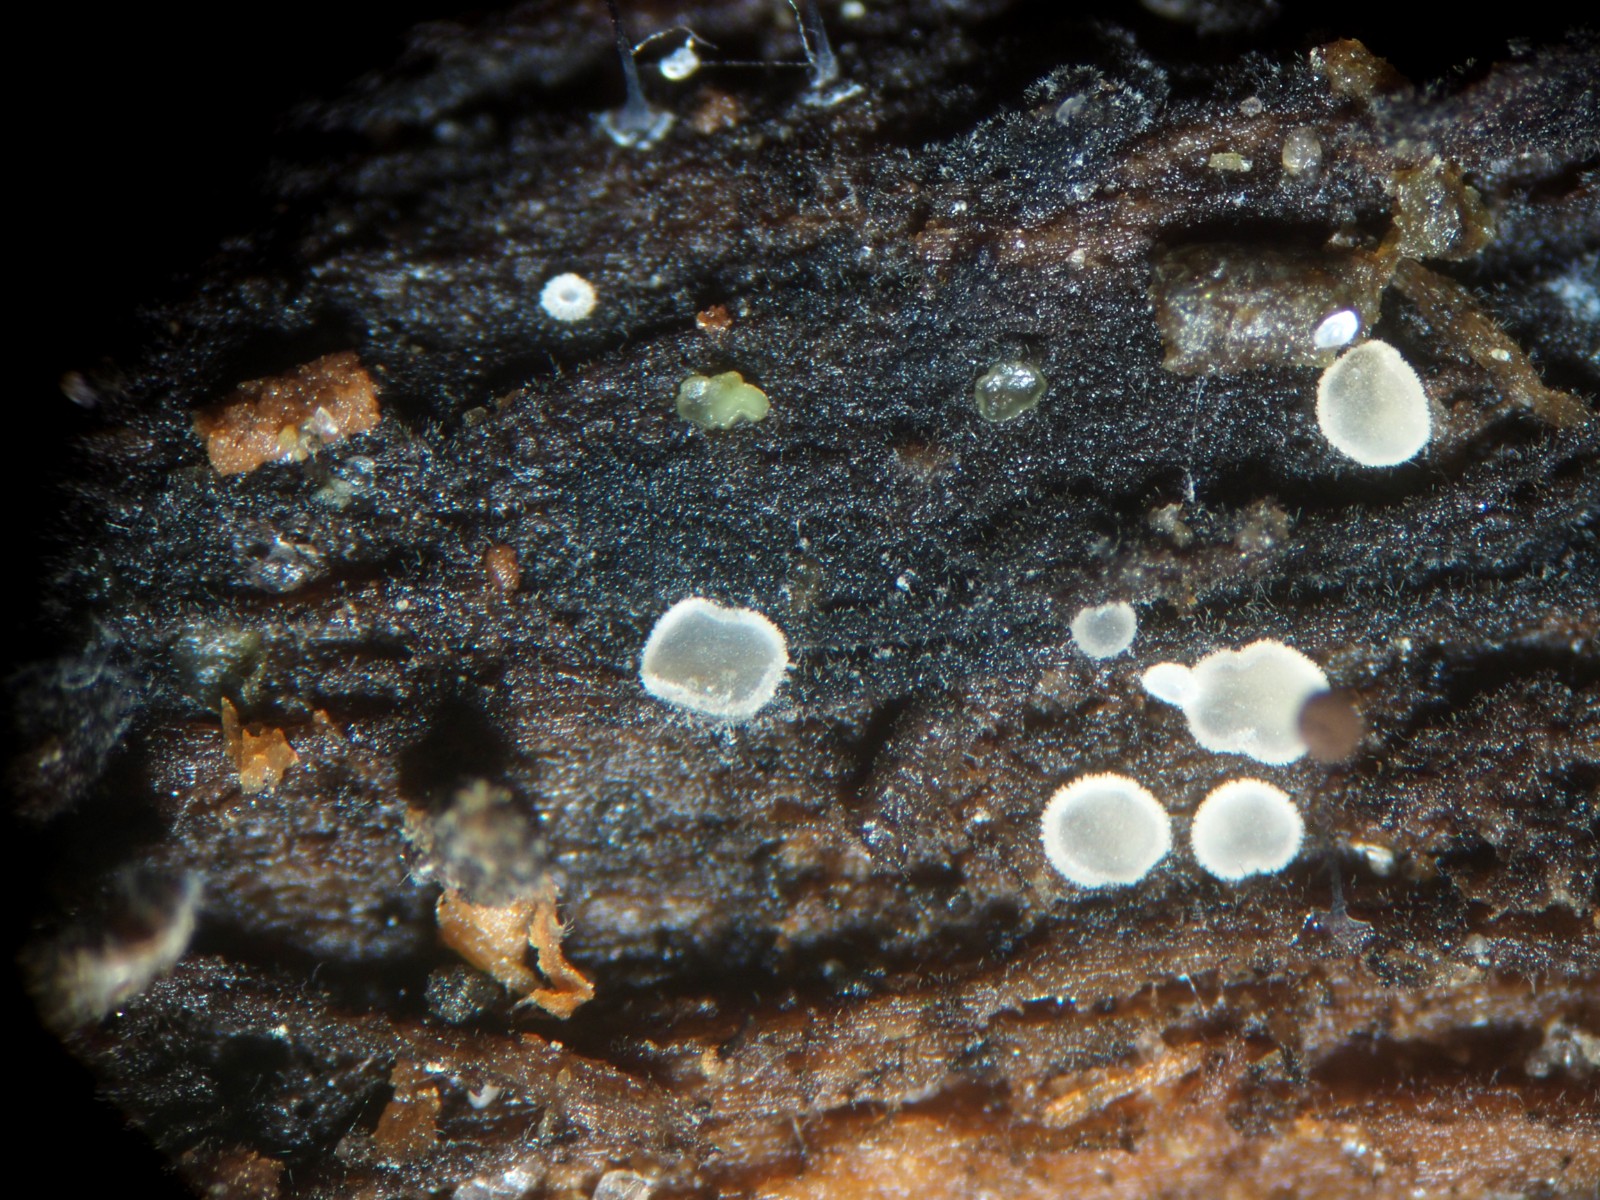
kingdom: Fungi
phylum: Ascomycota
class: Leotiomycetes
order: Helotiales
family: Hyaloscyphaceae
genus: Eupezizella
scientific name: Eupezizella aureliella
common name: almindelig klarskive
